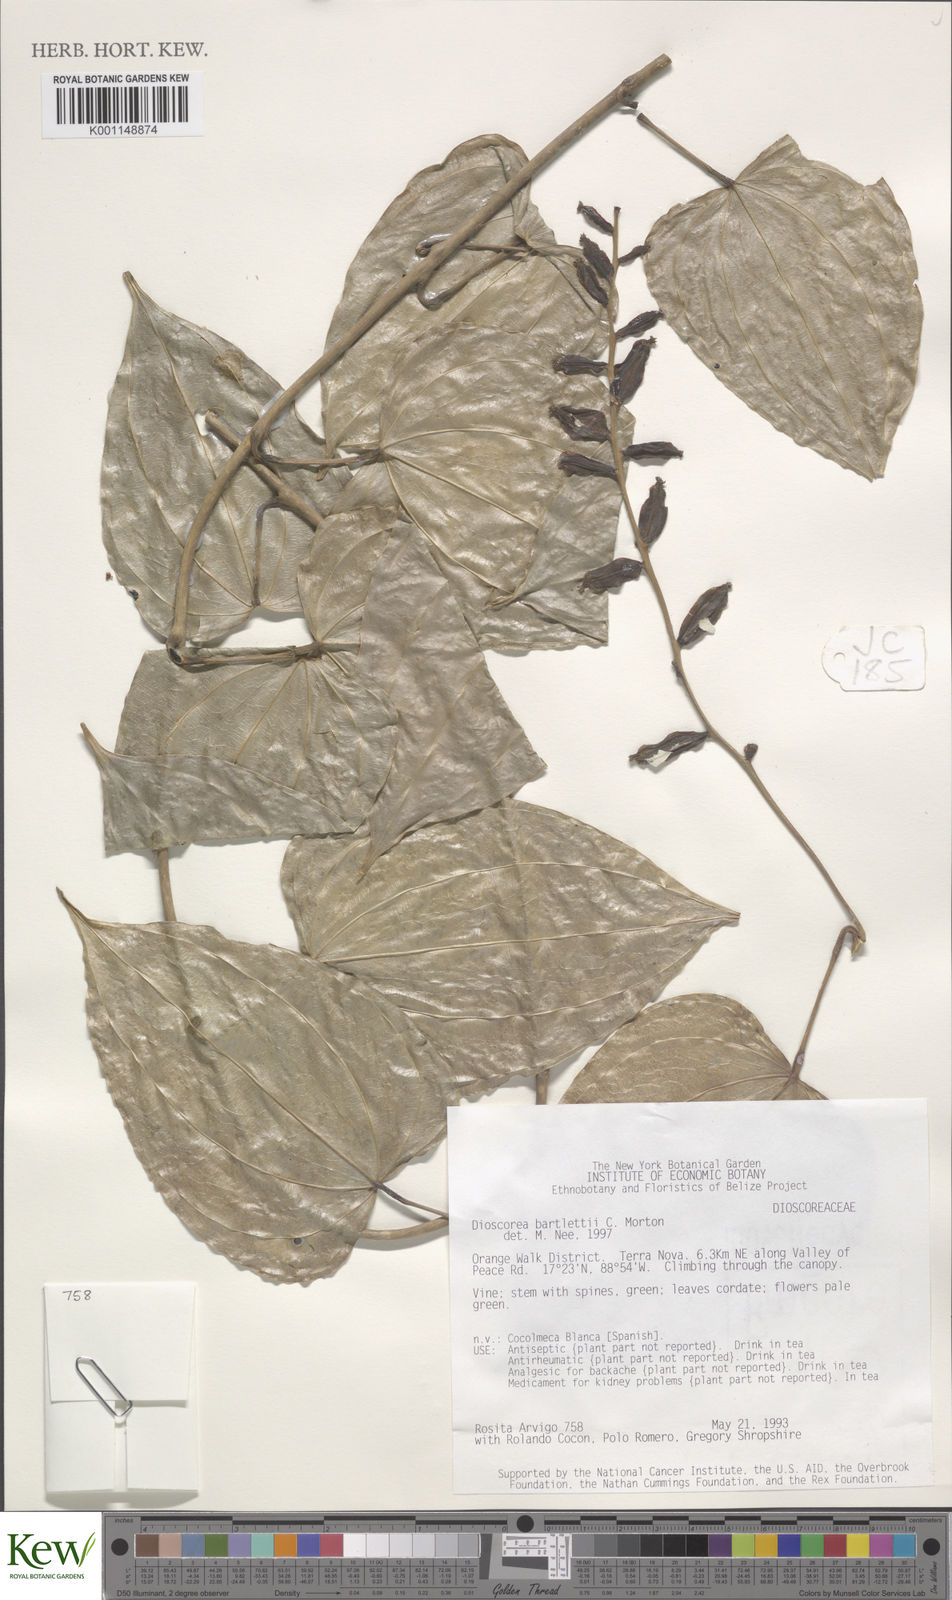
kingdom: Plantae
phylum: Tracheophyta
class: Liliopsida
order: Dioscoreales
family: Dioscoreaceae
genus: Dioscorea
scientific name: Dioscorea bartlettii
